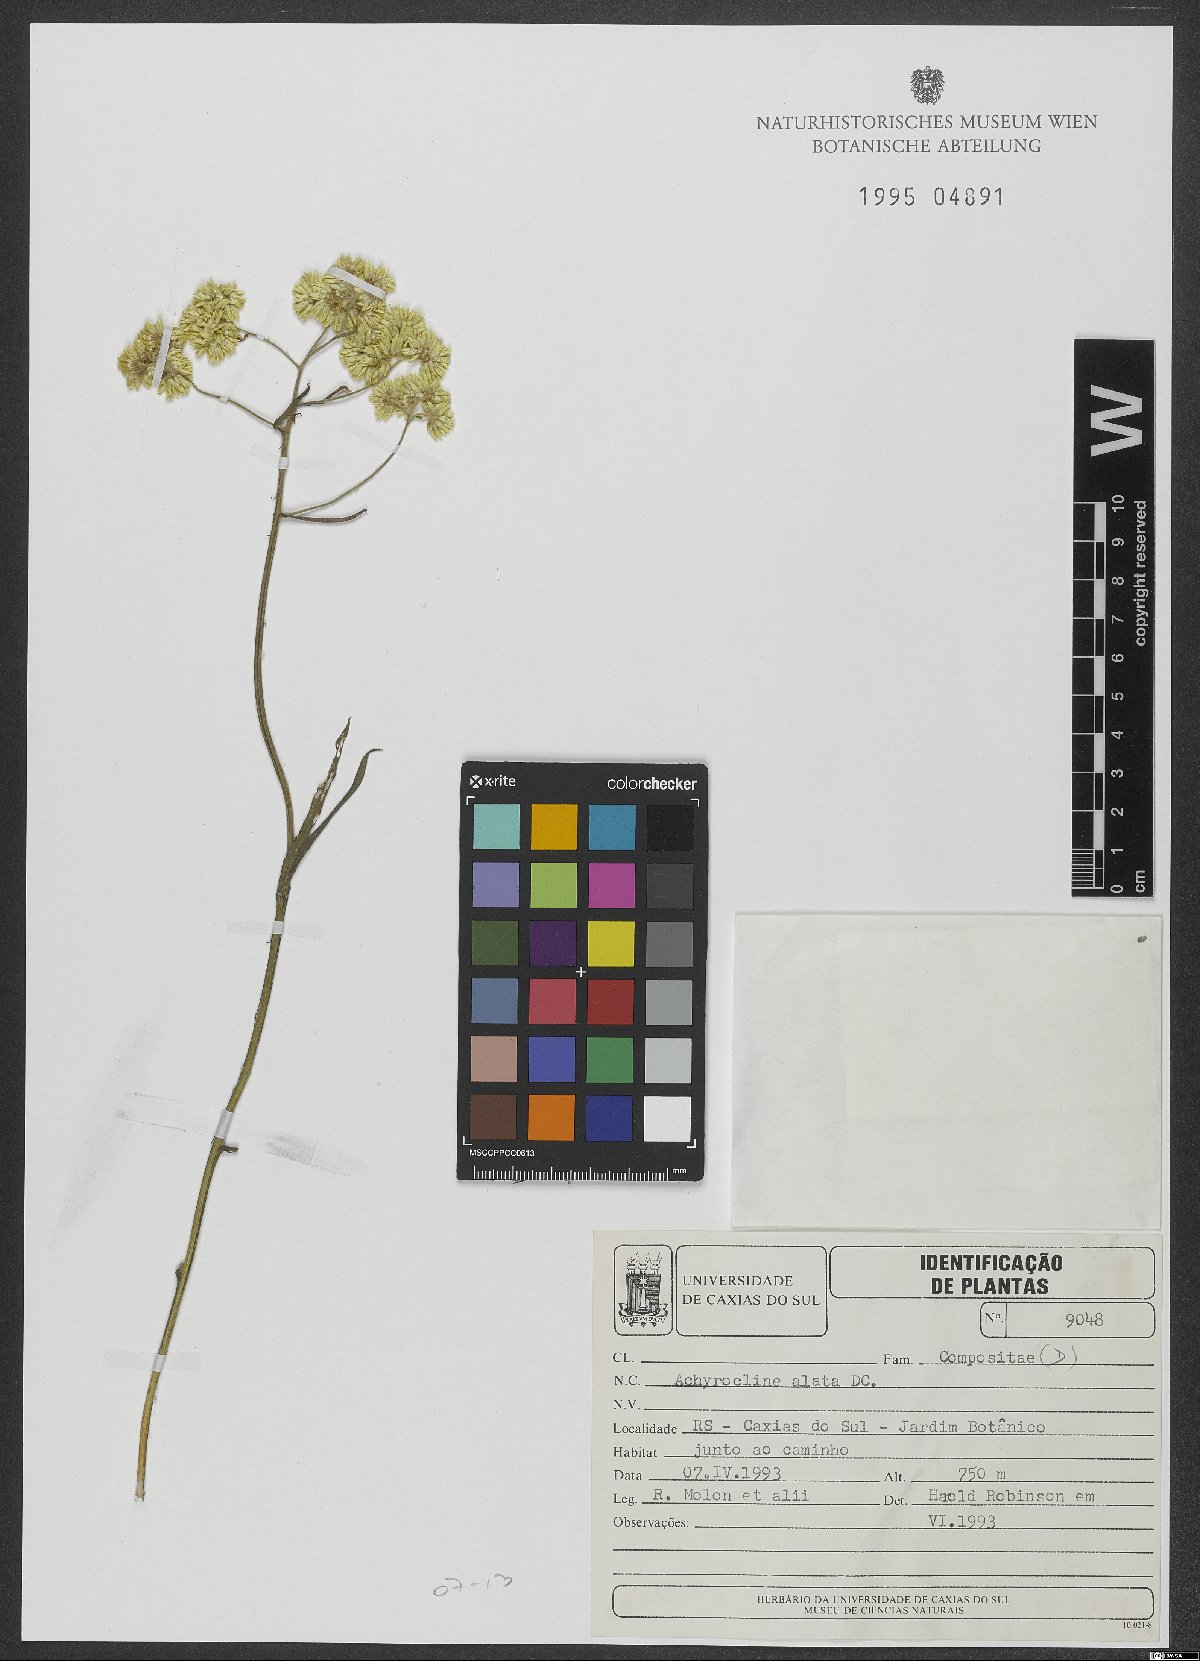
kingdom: Plantae
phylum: Tracheophyta
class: Magnoliopsida
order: Asterales
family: Asteraceae
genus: Achyrocline
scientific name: Achyrocline alata
